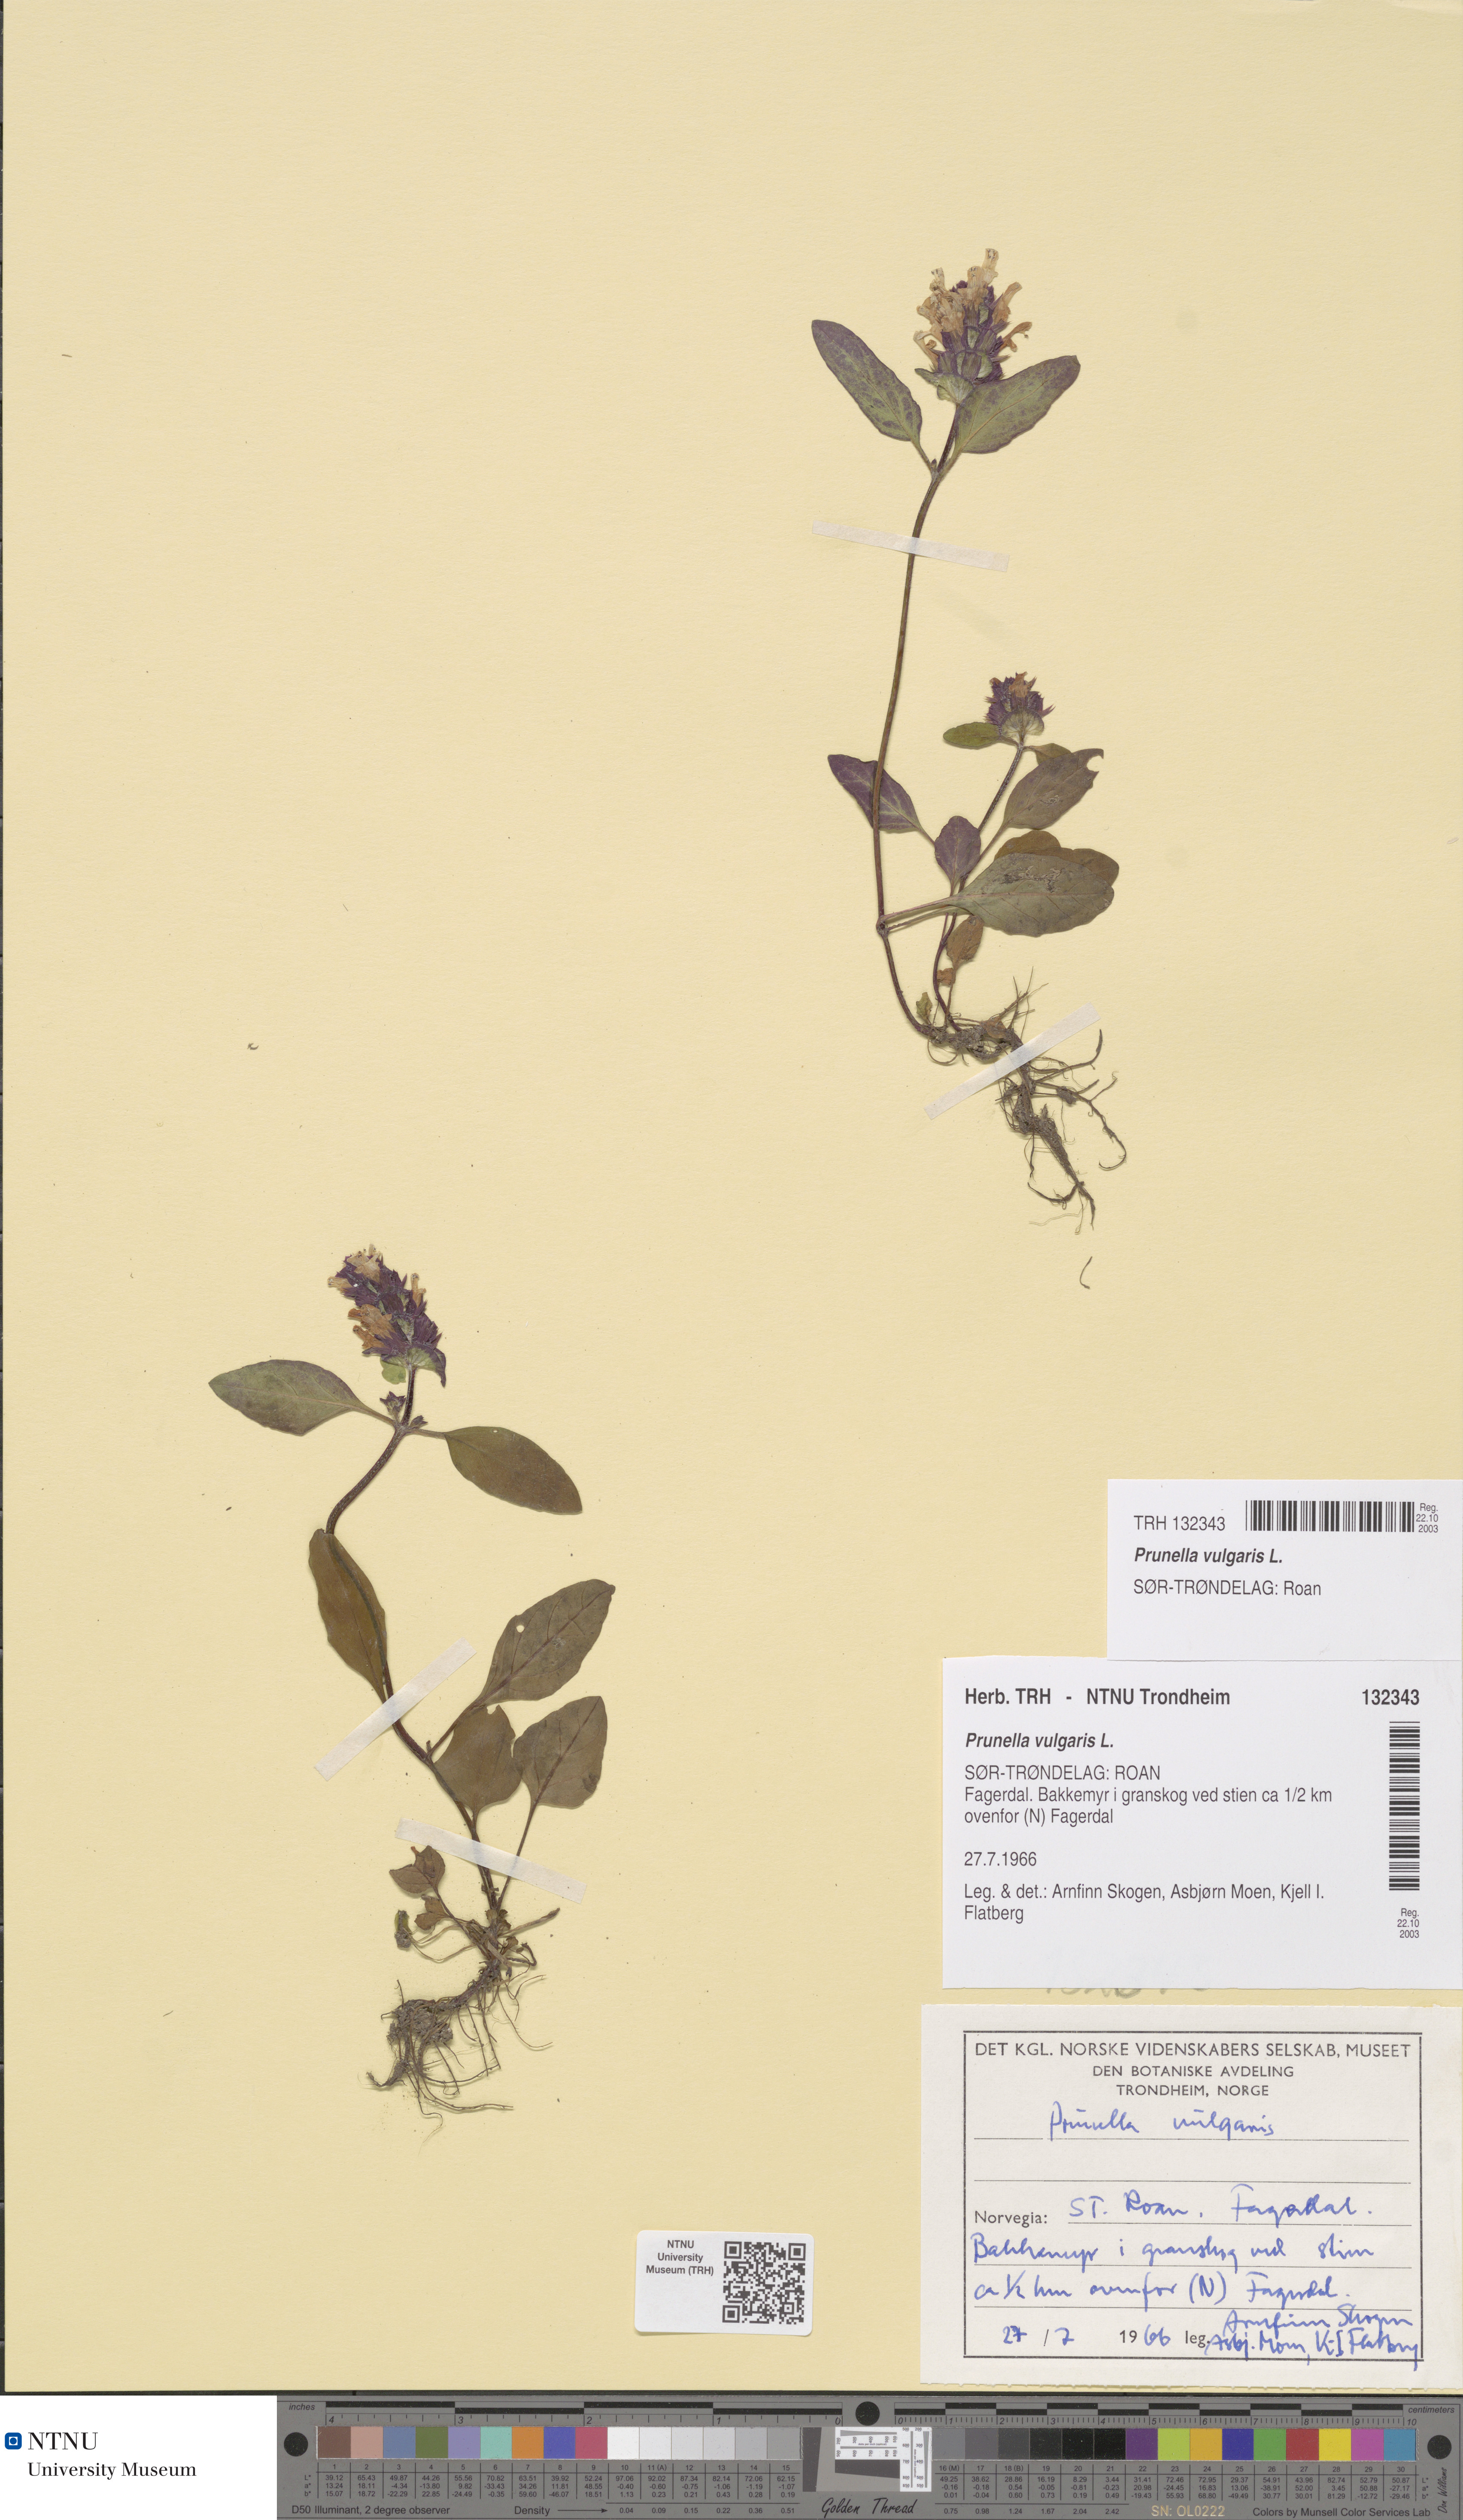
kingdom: Plantae
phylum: Tracheophyta
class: Magnoliopsida
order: Lamiales
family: Lamiaceae
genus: Prunella
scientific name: Prunella vulgaris
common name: Heal-all
